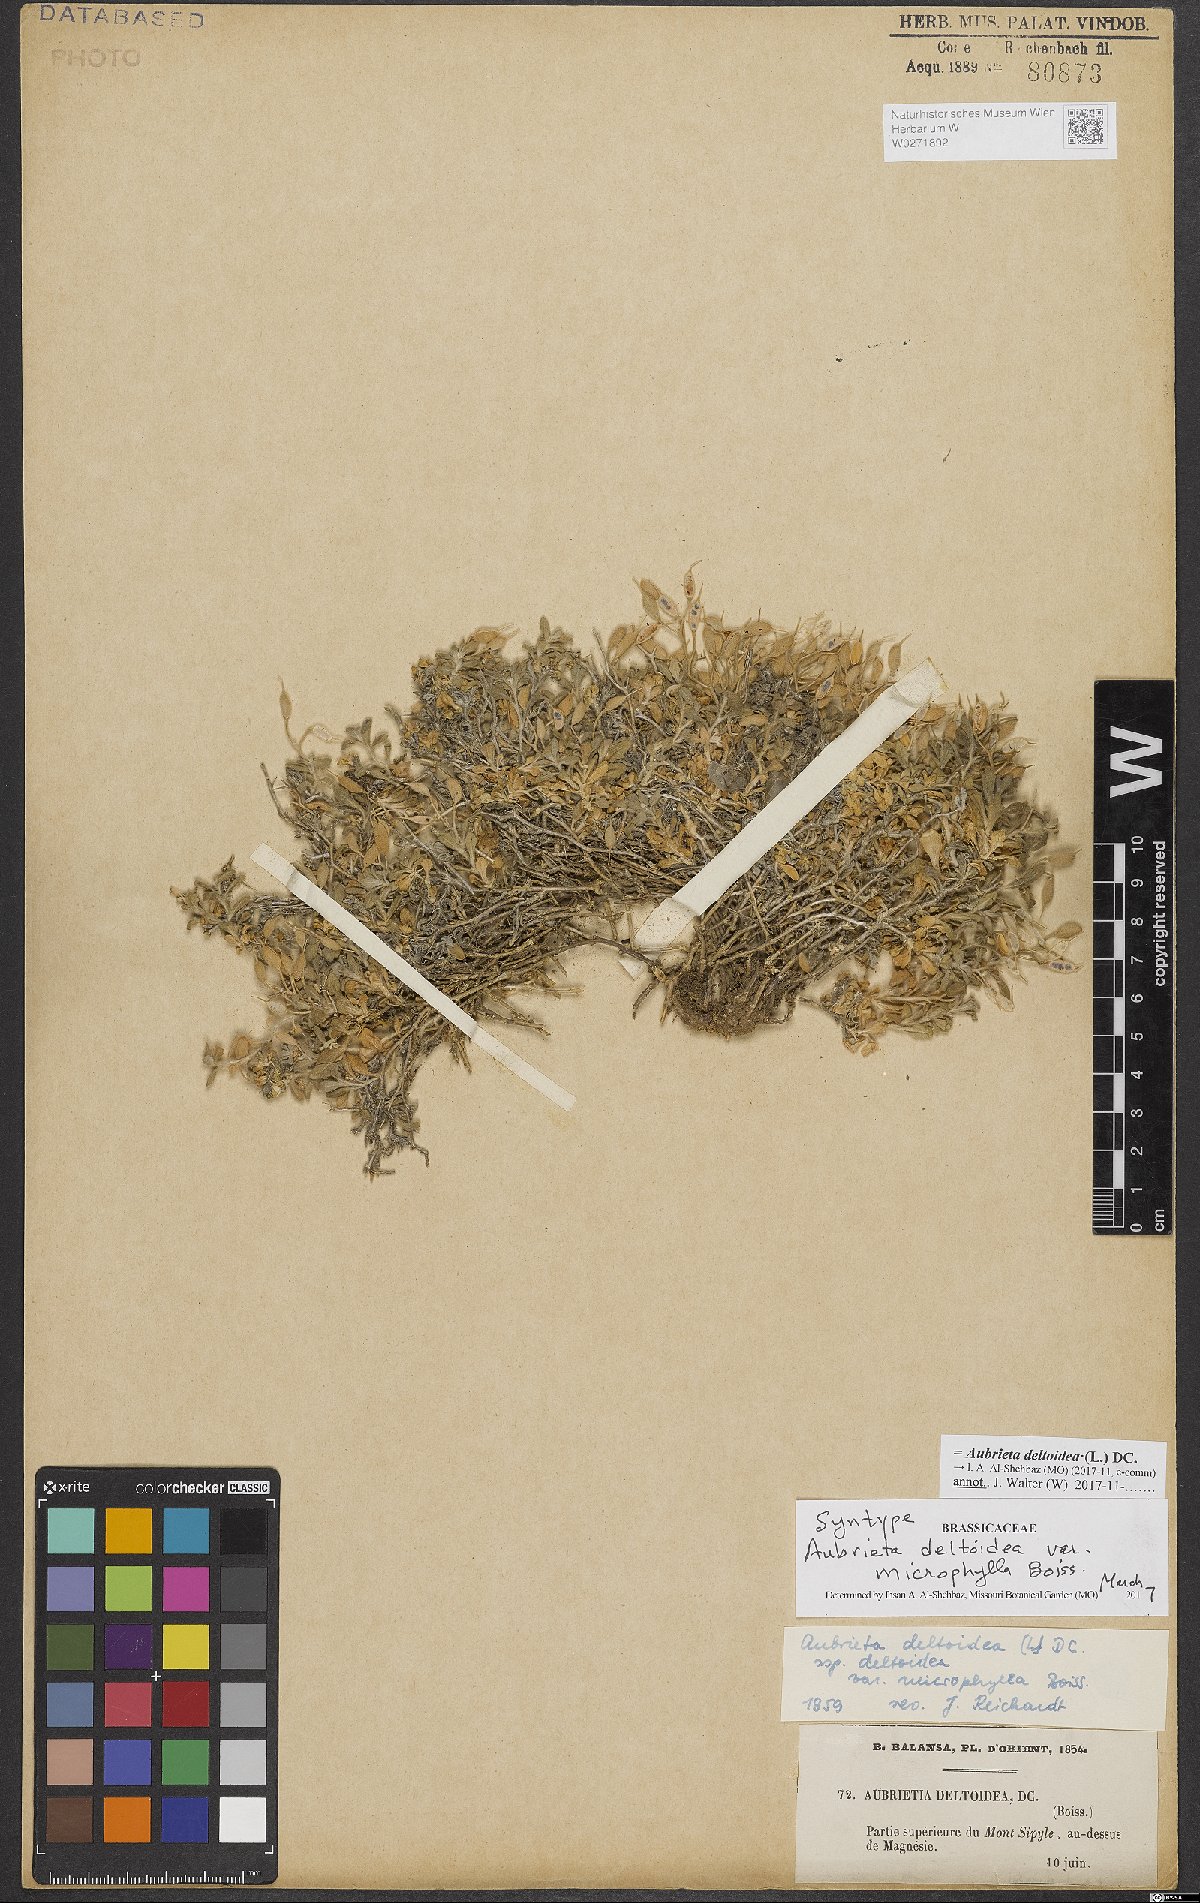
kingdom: Plantae
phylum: Tracheophyta
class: Magnoliopsida
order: Brassicales
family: Brassicaceae
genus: Aubrieta
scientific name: Aubrieta deltoidea
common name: Aubretia
